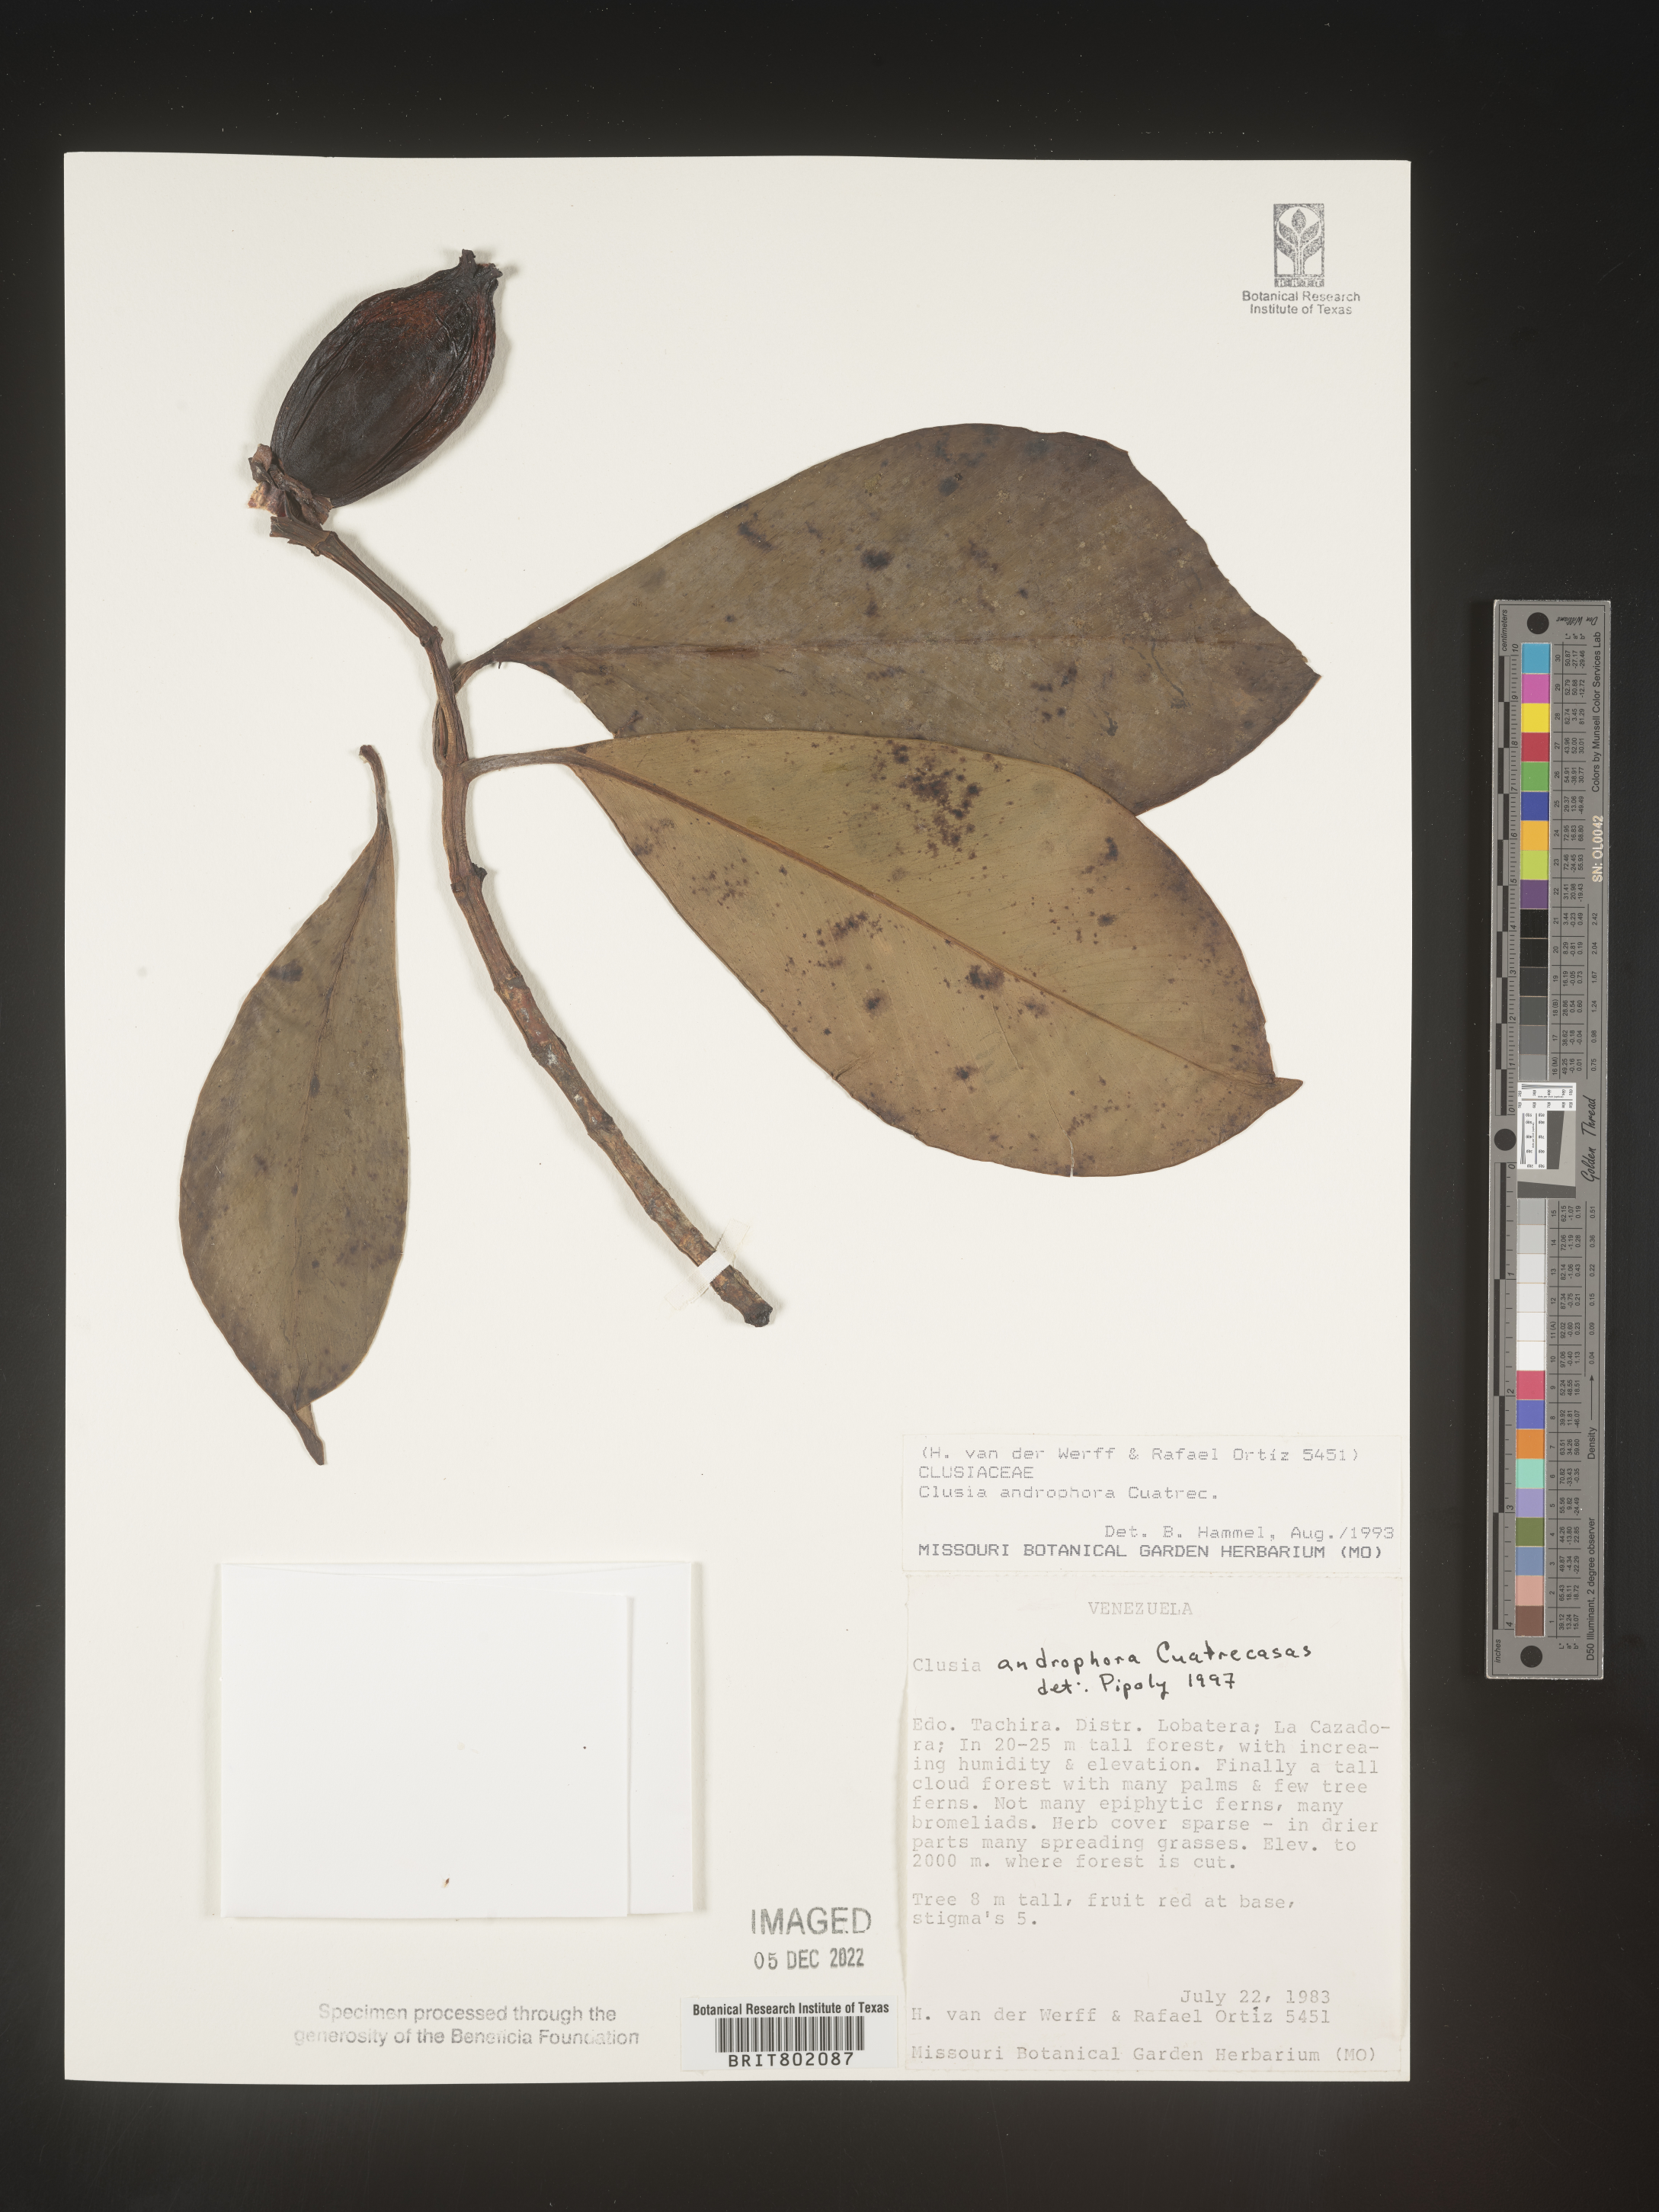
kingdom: Plantae
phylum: Tracheophyta
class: Magnoliopsida
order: Malpighiales
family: Clusiaceae
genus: Clusia
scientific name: Clusia androphora
